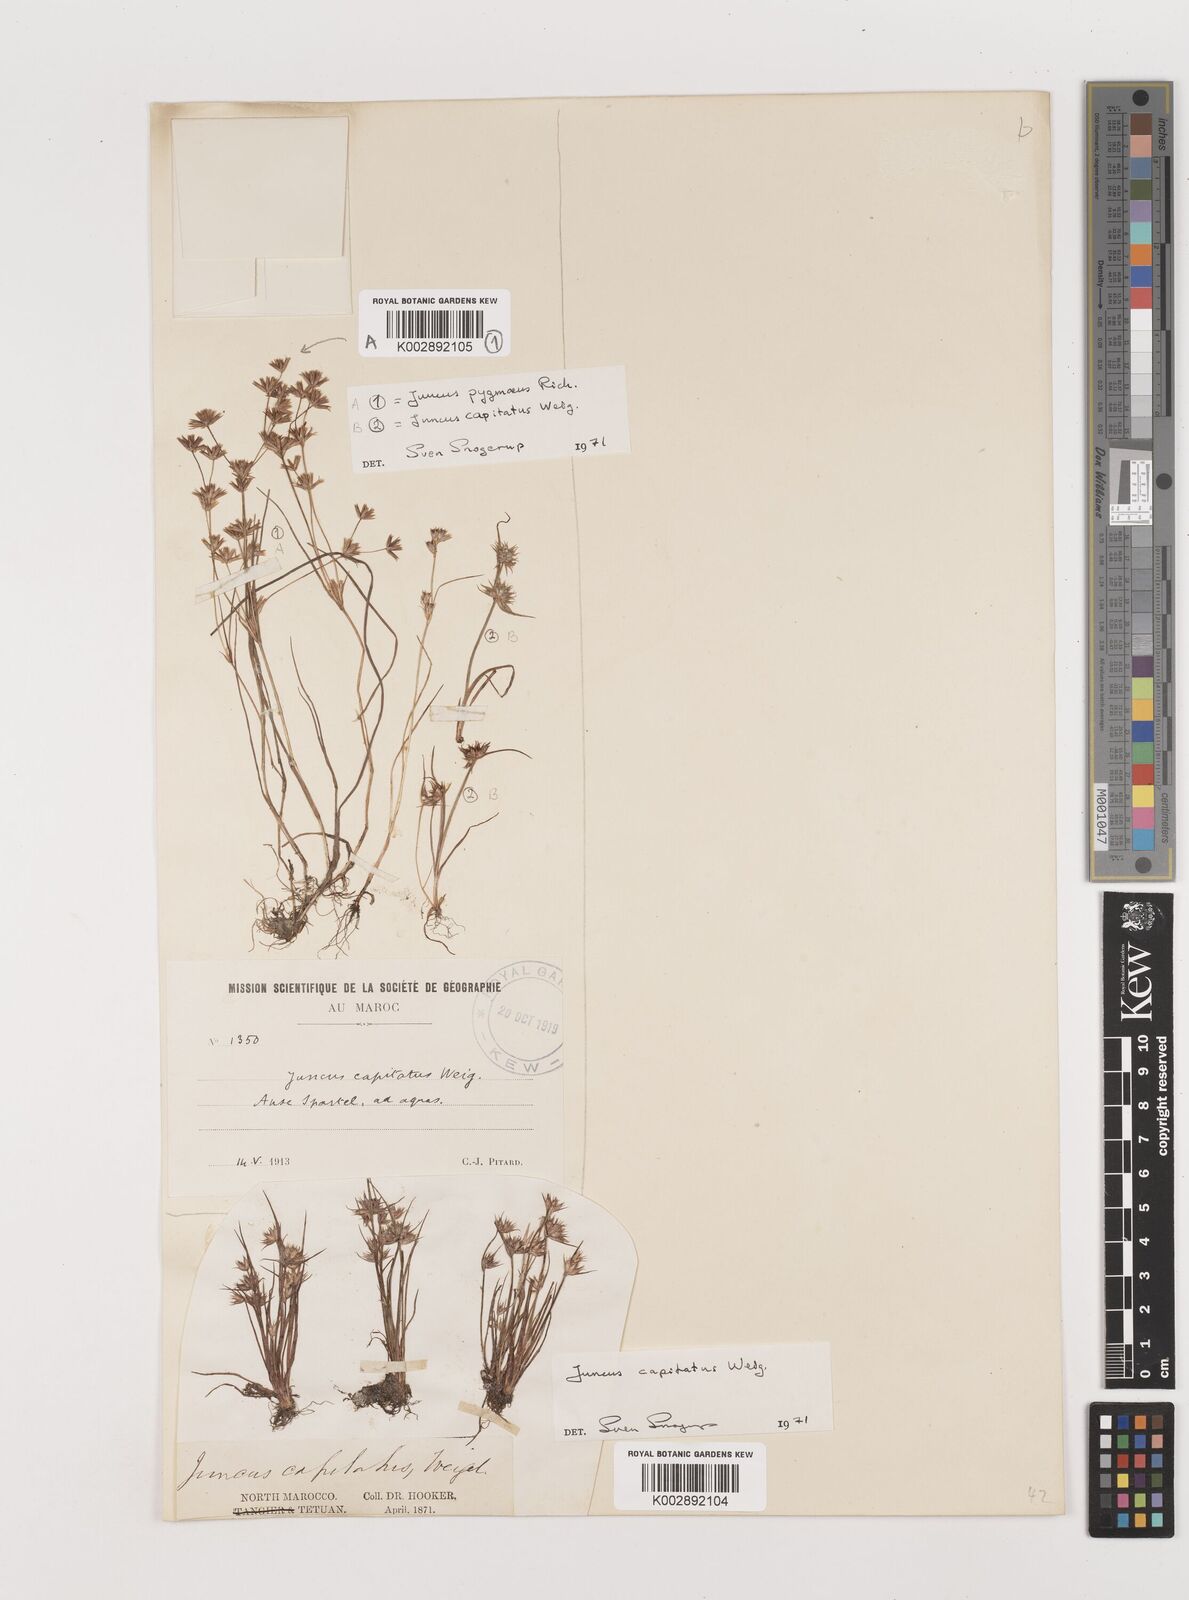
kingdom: Plantae
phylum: Tracheophyta
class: Liliopsida
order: Poales
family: Juncaceae
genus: Juncus
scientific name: Juncus capitatus
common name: Dwarf rush
